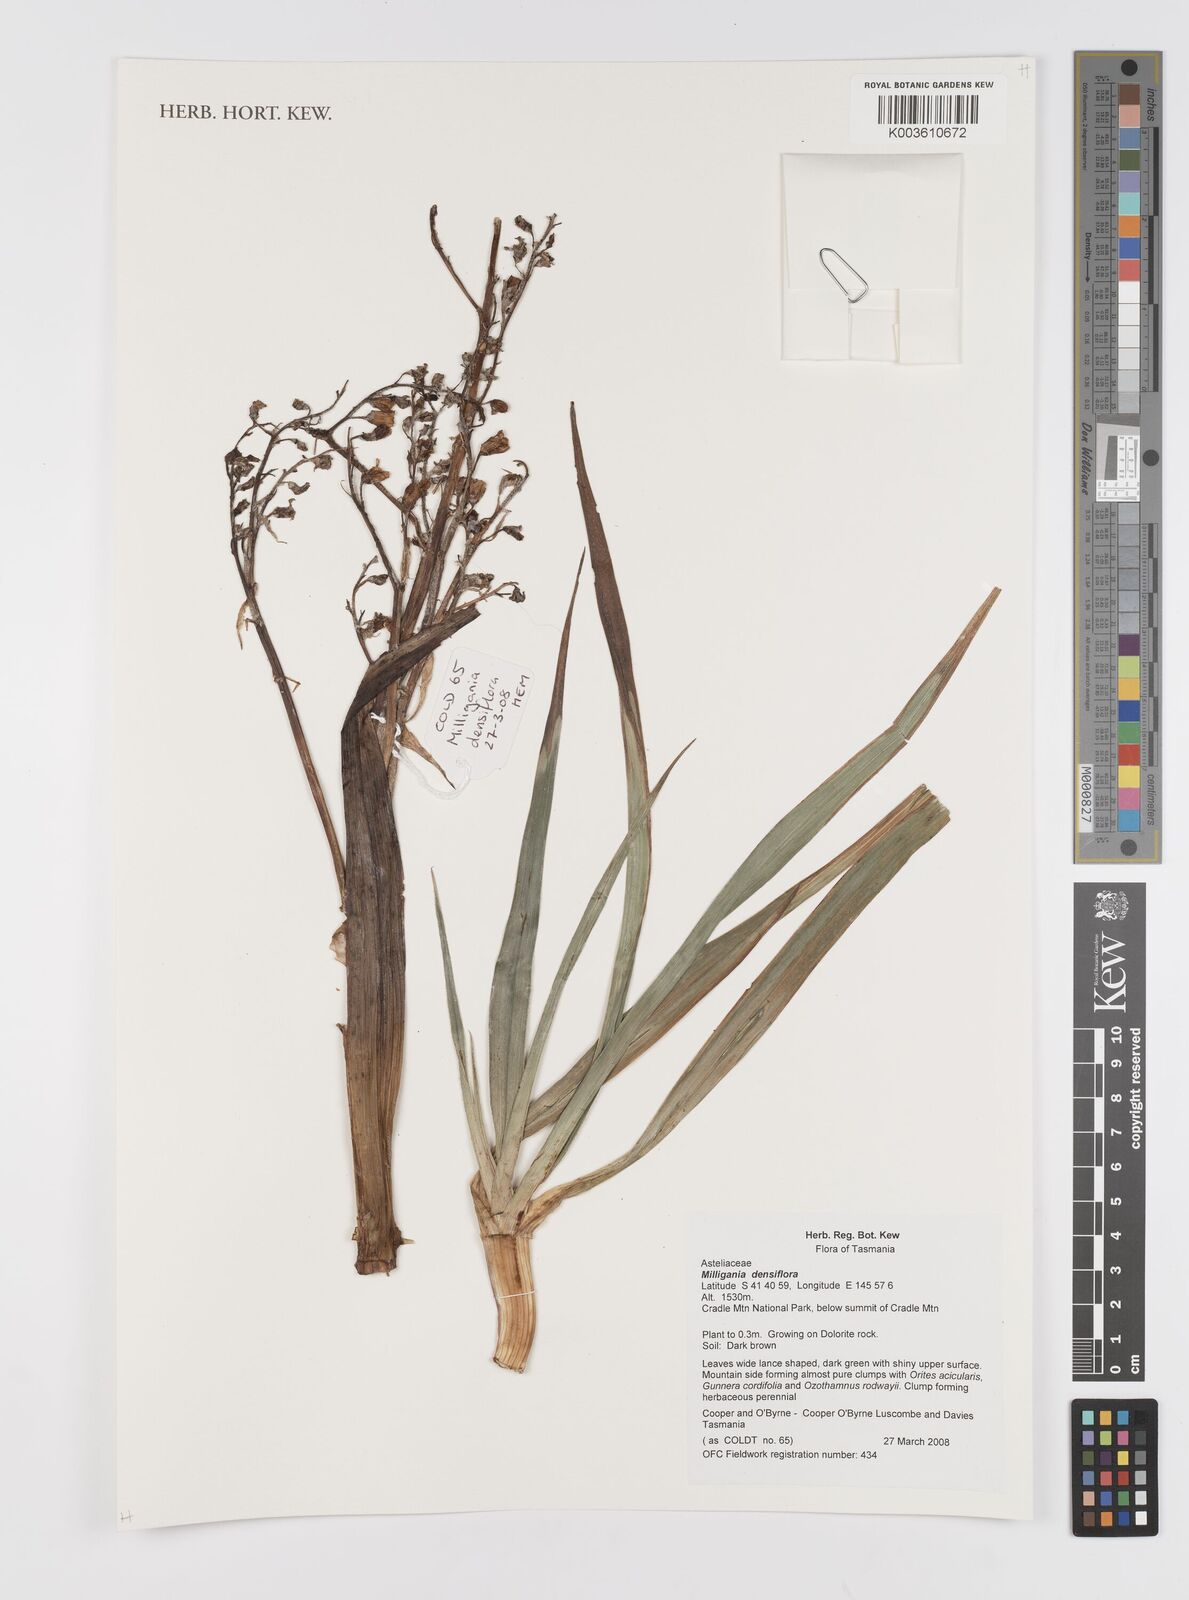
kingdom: Plantae
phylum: Tracheophyta
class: Liliopsida
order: Asparagales
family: Asteliaceae
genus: Milligania
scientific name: Milligania densiflora
